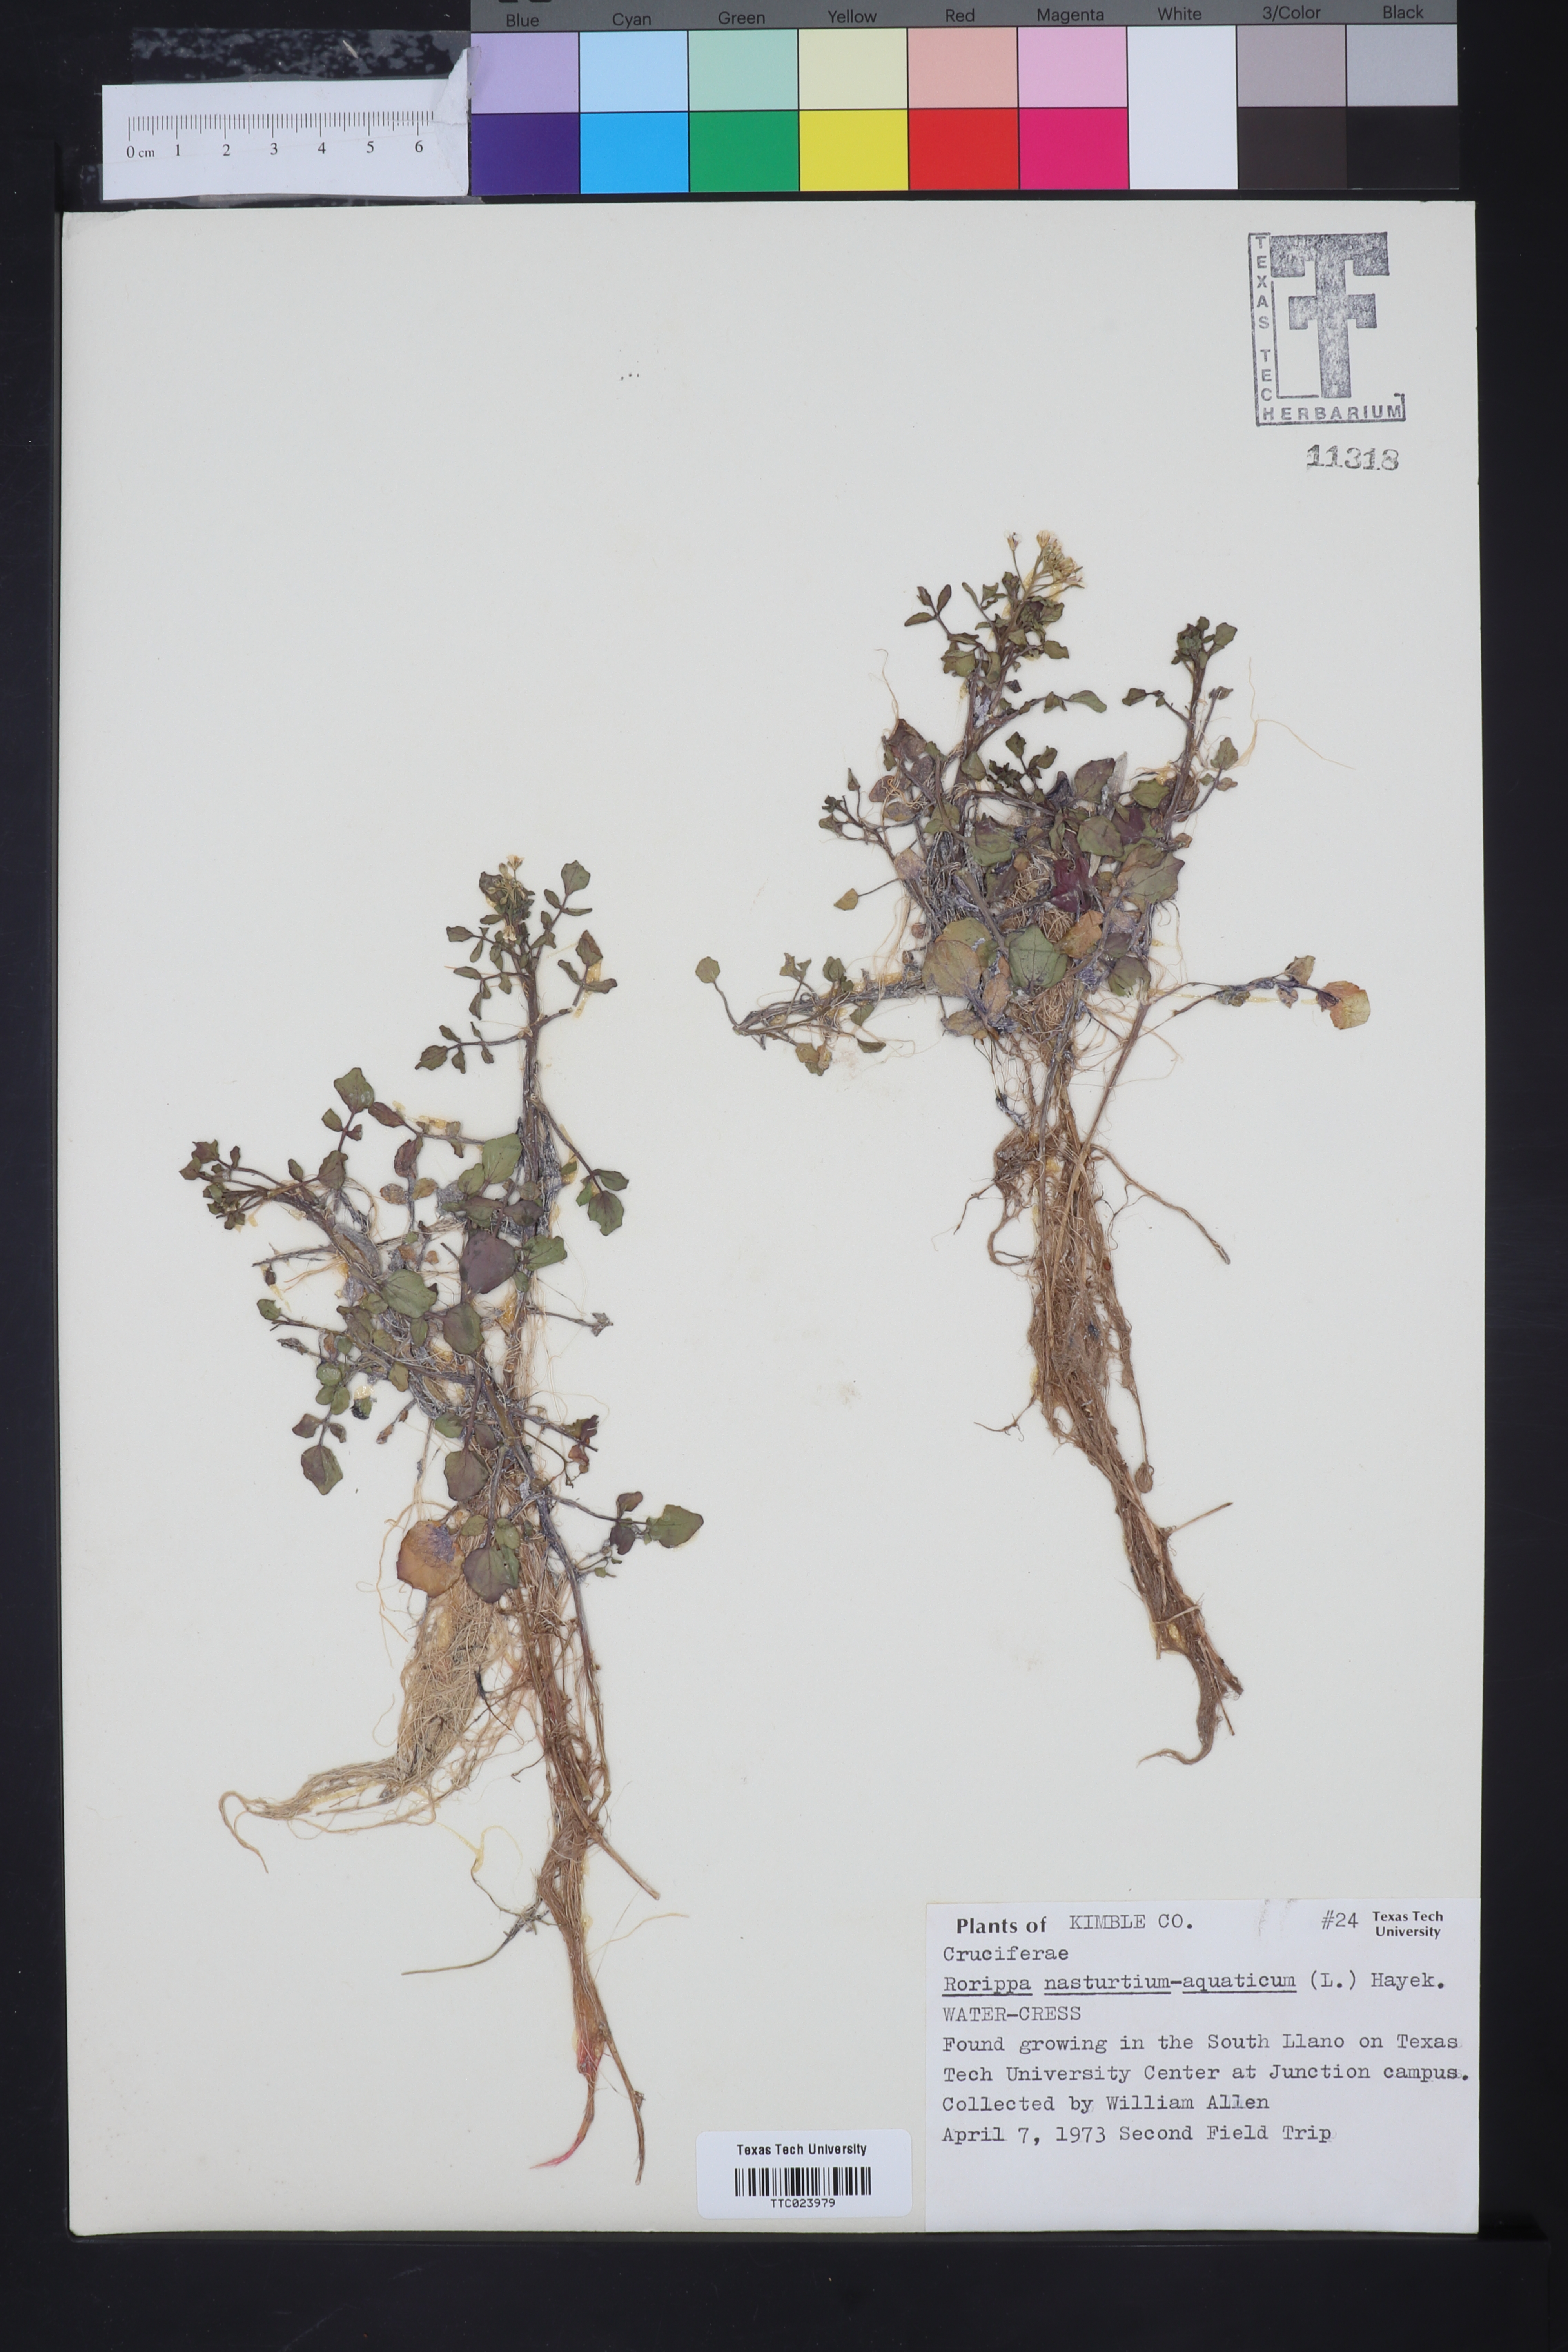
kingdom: Plantae
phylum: Tracheophyta
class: Magnoliopsida
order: Brassicales
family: Brassicaceae
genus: Nasturtium
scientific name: Nasturtium officinale
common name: Watercress
